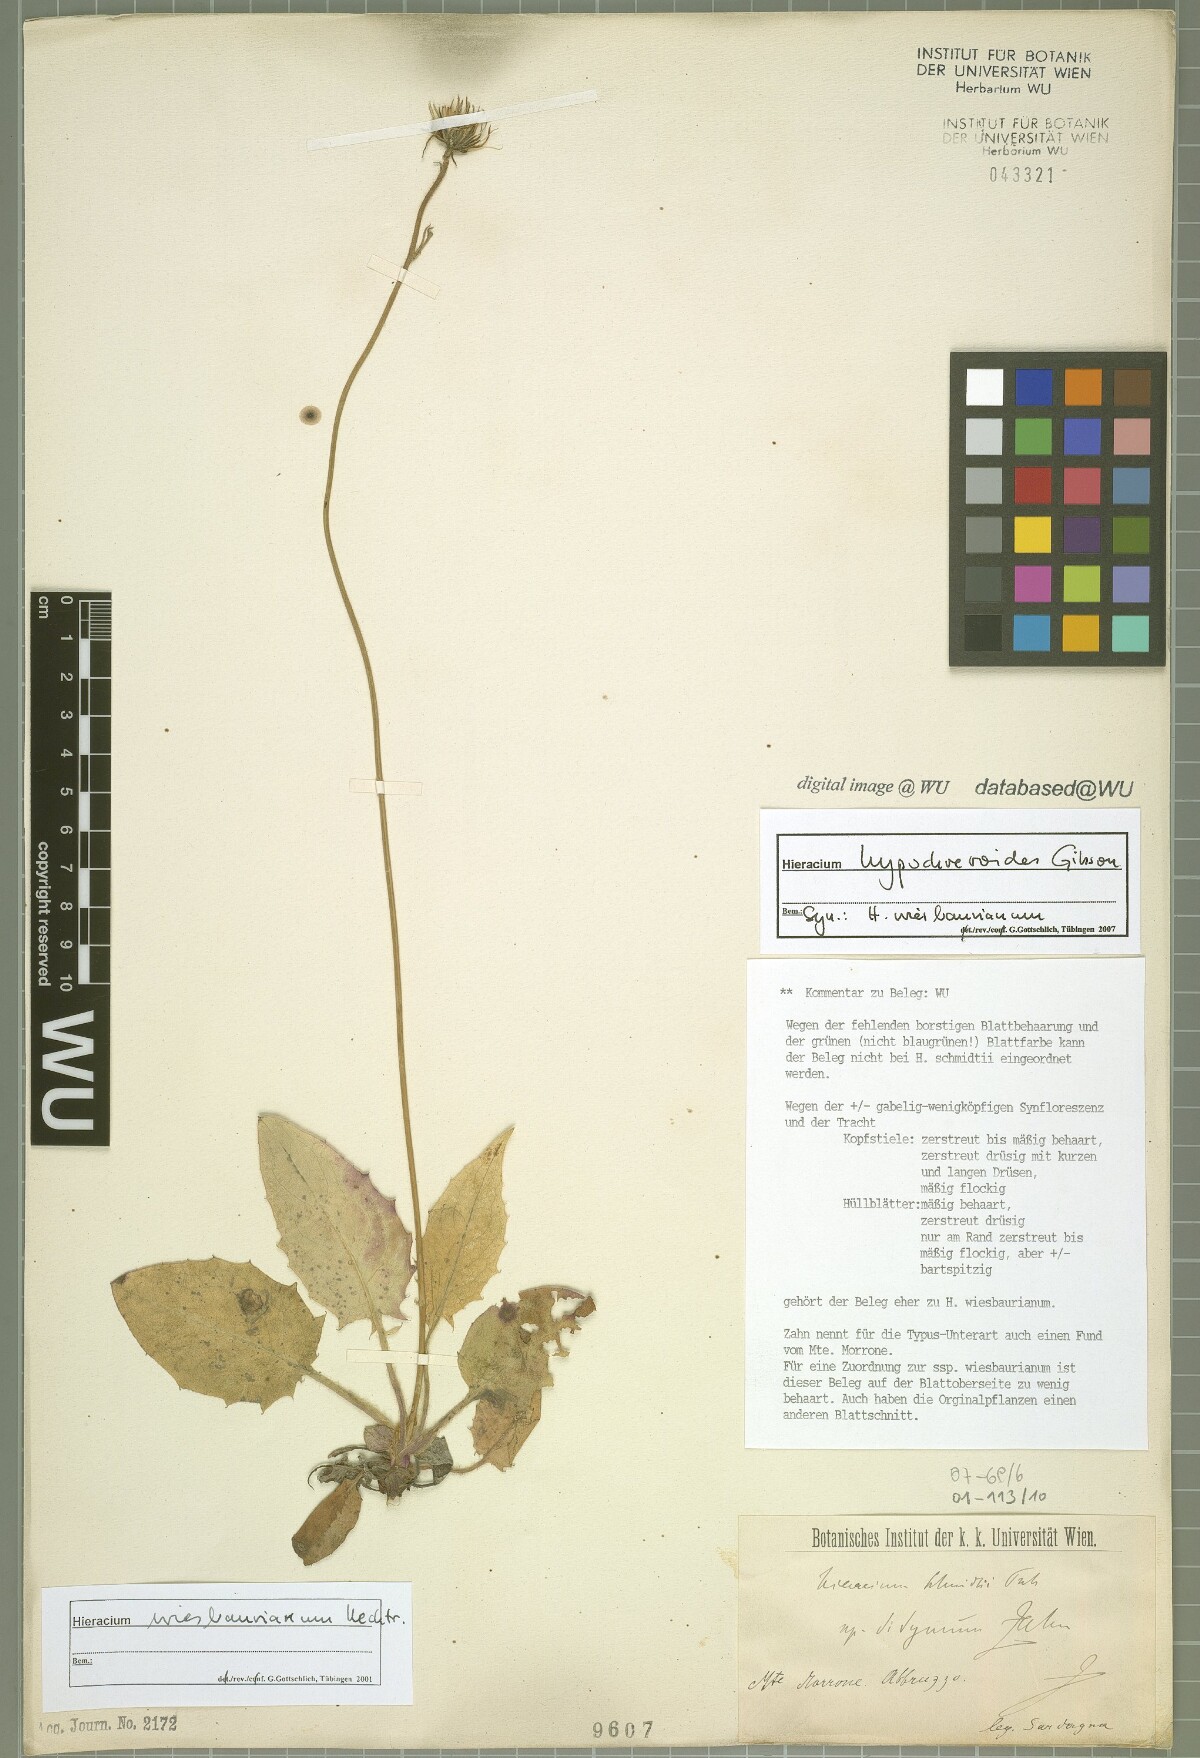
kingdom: Plantae
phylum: Tracheophyta
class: Magnoliopsida
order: Asterales
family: Asteraceae
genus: Hieracium
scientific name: Hieracium hypochoeroides
